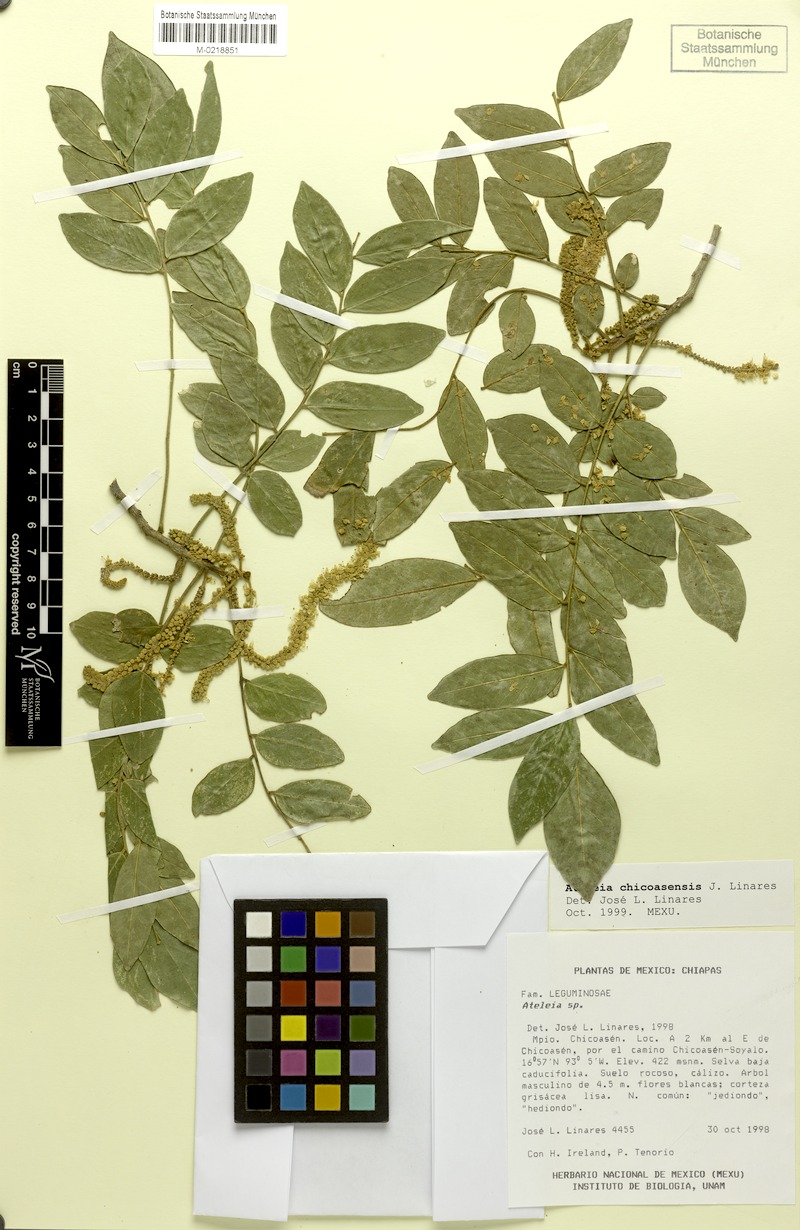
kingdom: Plantae
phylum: Tracheophyta
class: Magnoliopsida
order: Fabales
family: Fabaceae
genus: Ateleia
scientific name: Ateleia chicoasensis
